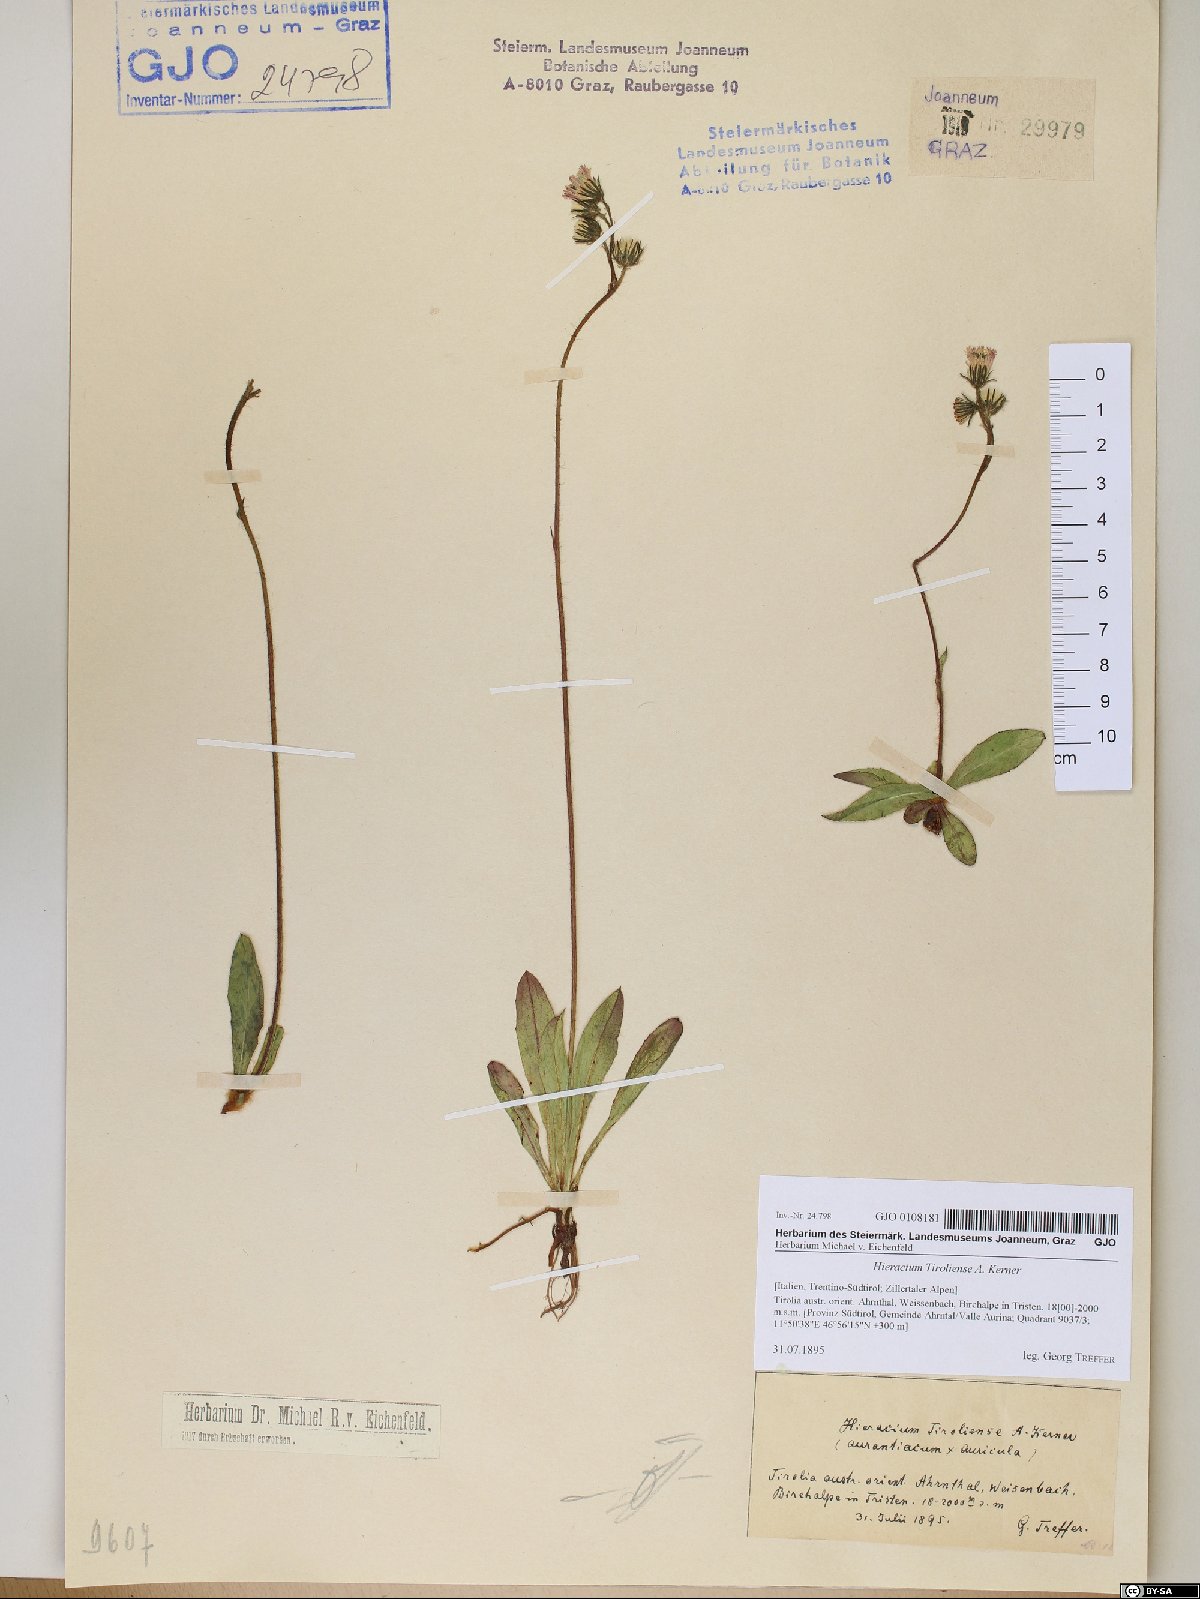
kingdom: Plantae
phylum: Tracheophyta
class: Magnoliopsida
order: Asterales
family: Asteraceae
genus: Pilosella
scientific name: Pilosella fusca
